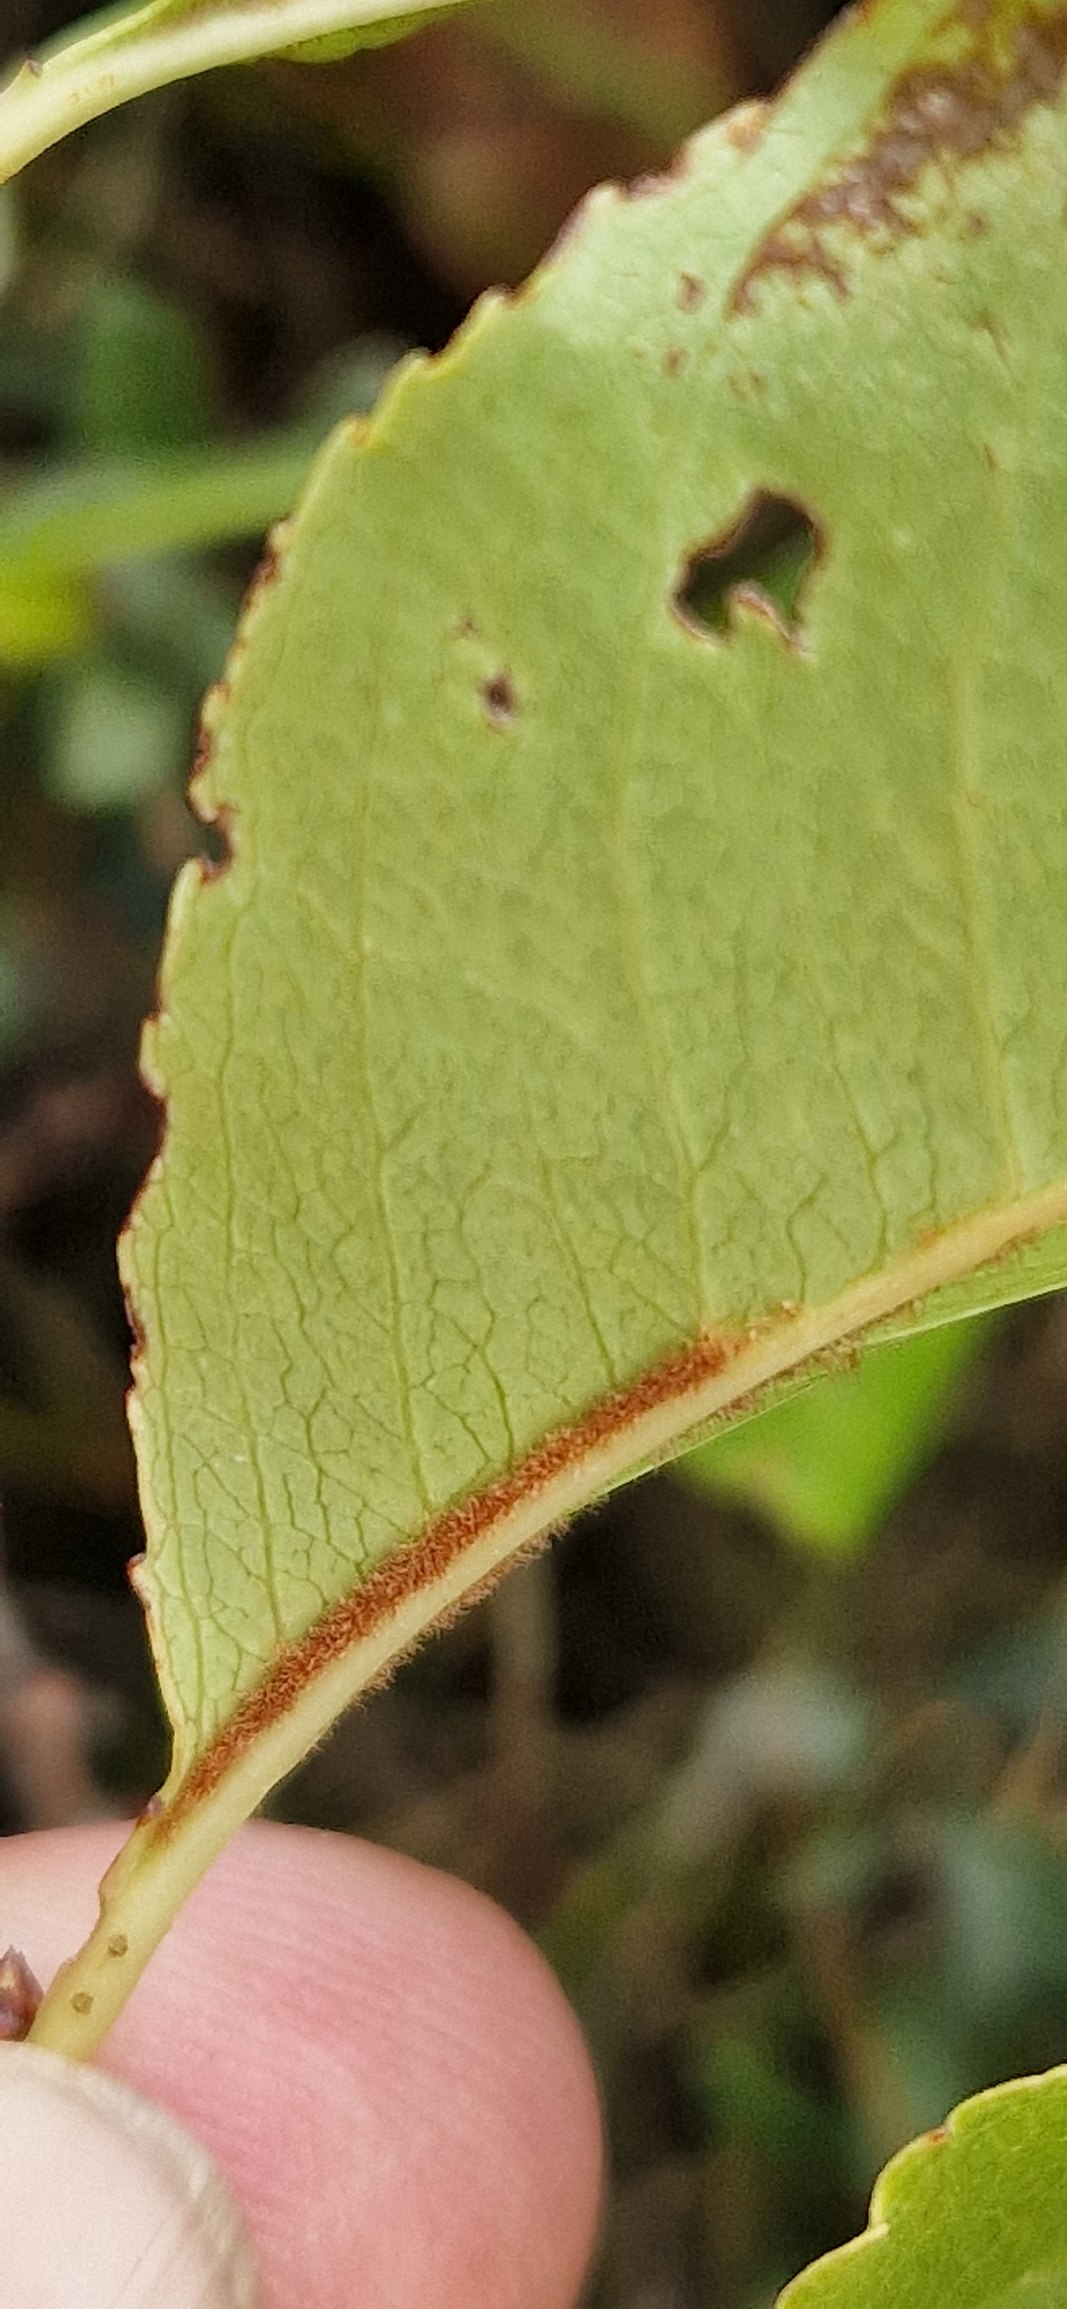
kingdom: Plantae
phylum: Tracheophyta
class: Magnoliopsida
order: Rosales
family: Rosaceae
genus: Prunus
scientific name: Prunus serotina
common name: Glansbladet hæg
